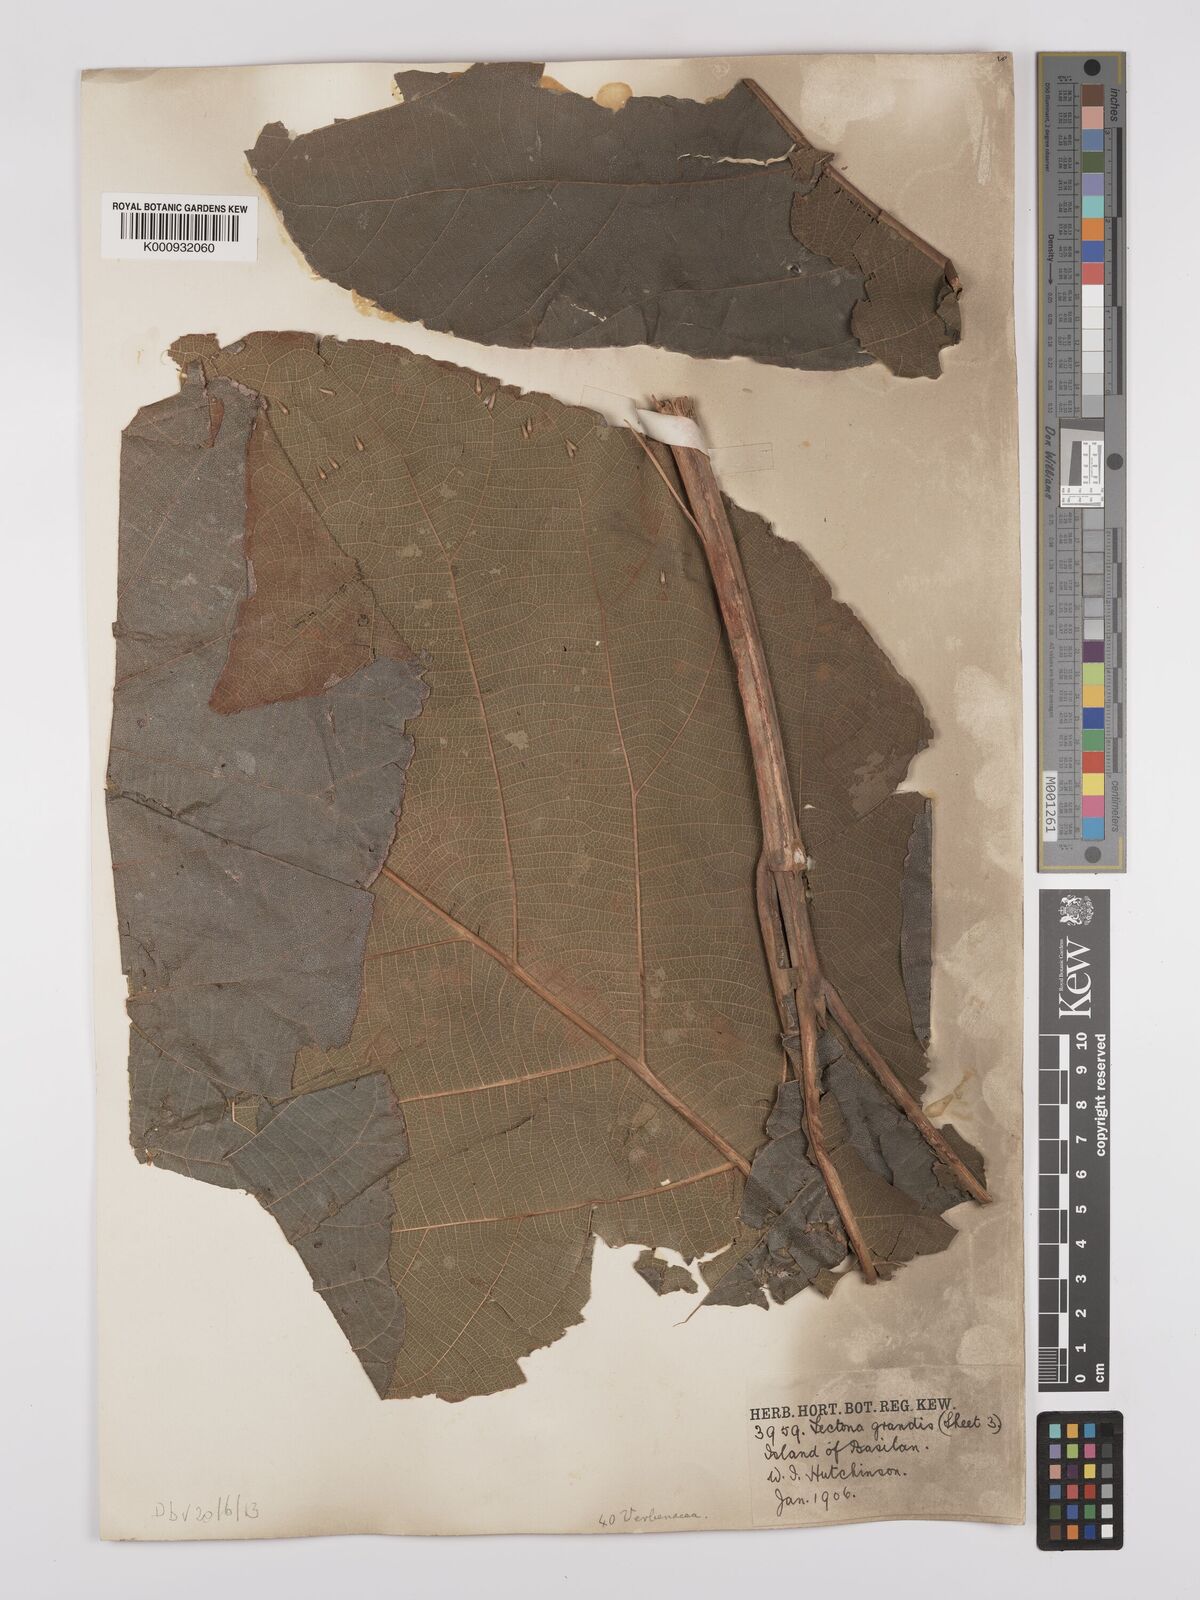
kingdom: Plantae
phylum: Tracheophyta
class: Magnoliopsida
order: Lamiales
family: Lamiaceae
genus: Tectona
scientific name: Tectona grandis
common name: Teak
